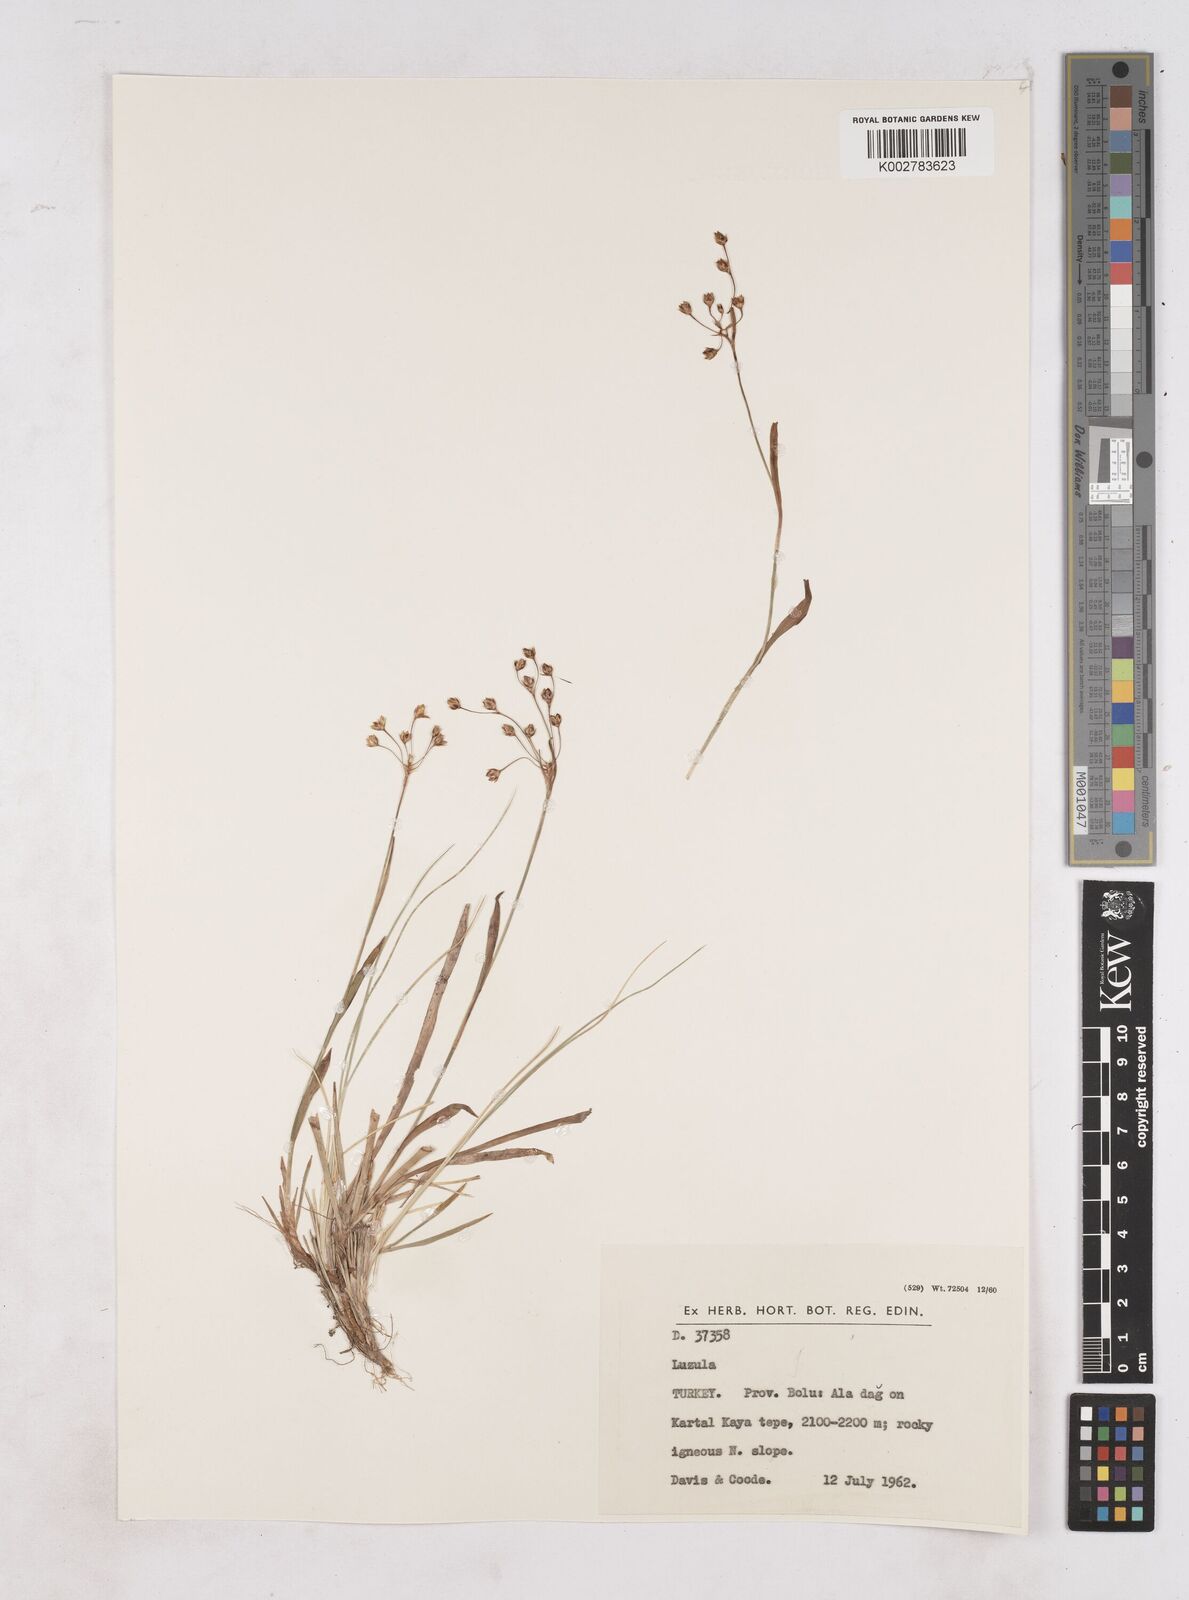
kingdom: Plantae
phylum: Tracheophyta
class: Liliopsida
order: Poales
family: Juncaceae
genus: Luzula
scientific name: Luzula forsteri
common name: Southern wood-rush
